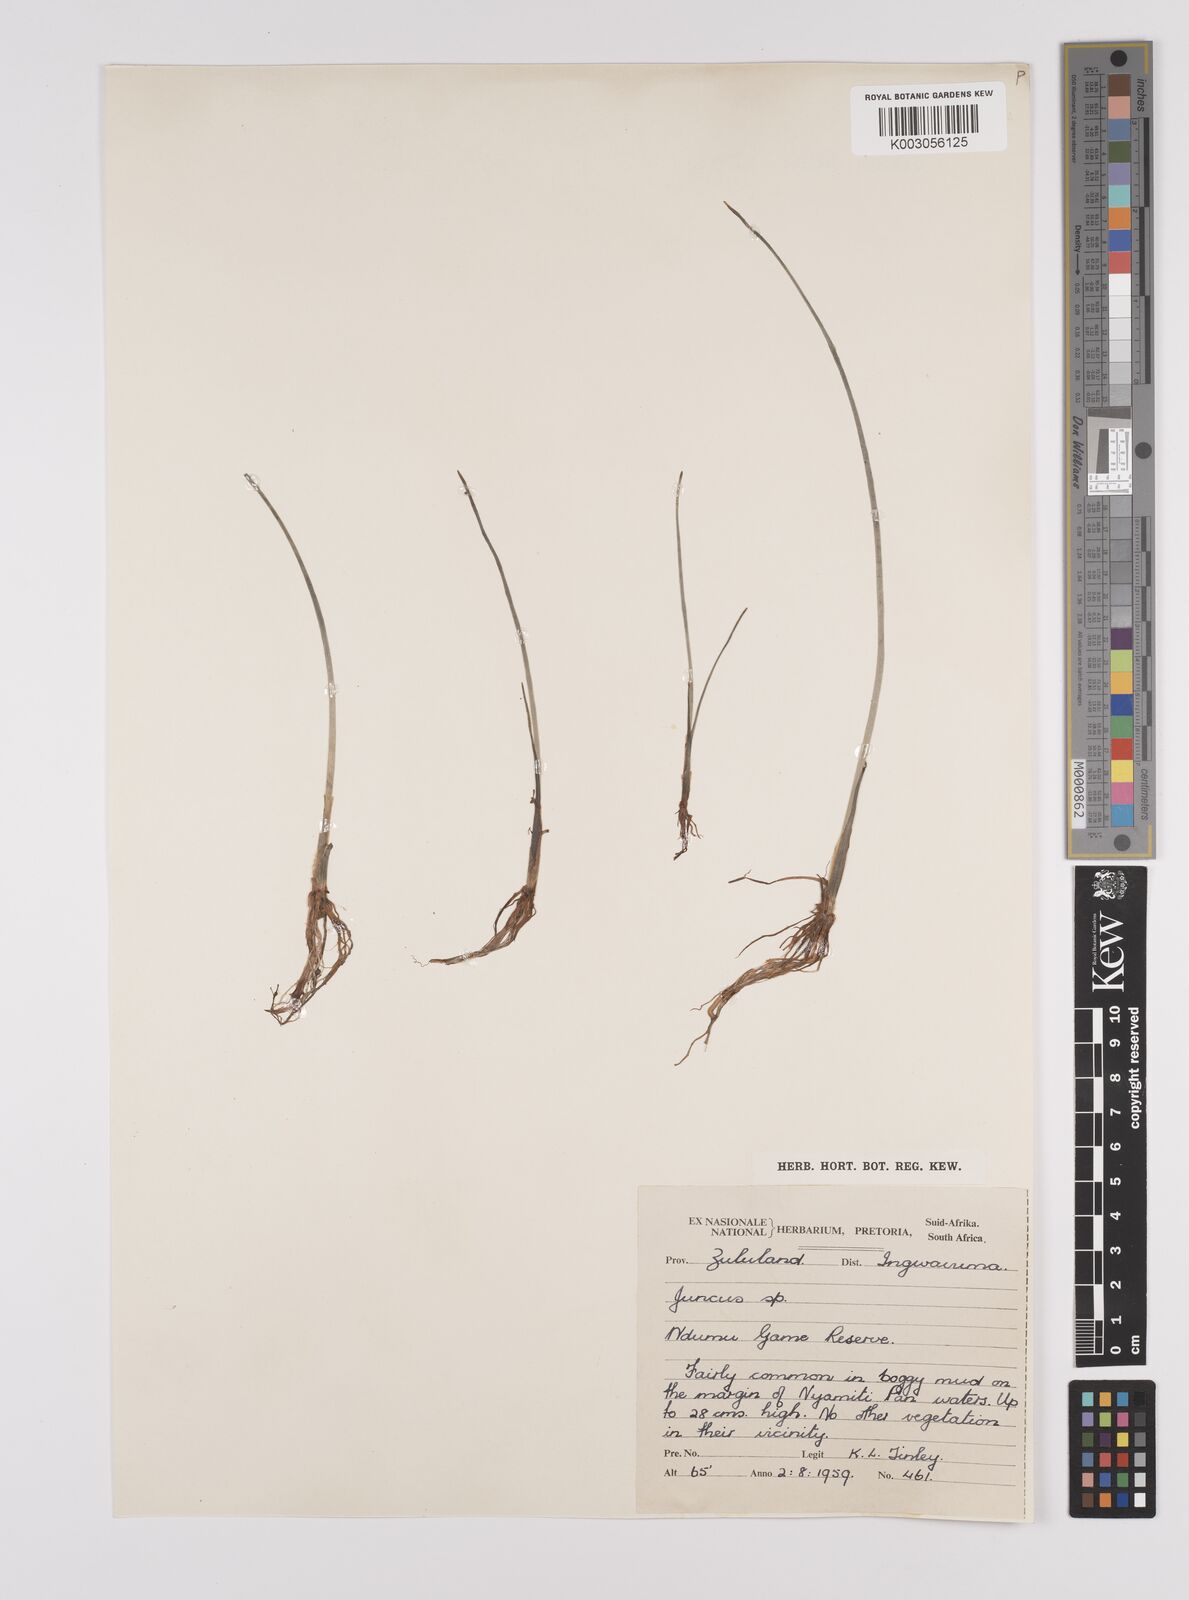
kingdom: Plantae
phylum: Tracheophyta
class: Liliopsida
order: Poales
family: Juncaceae
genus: Juncus
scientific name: Juncus
